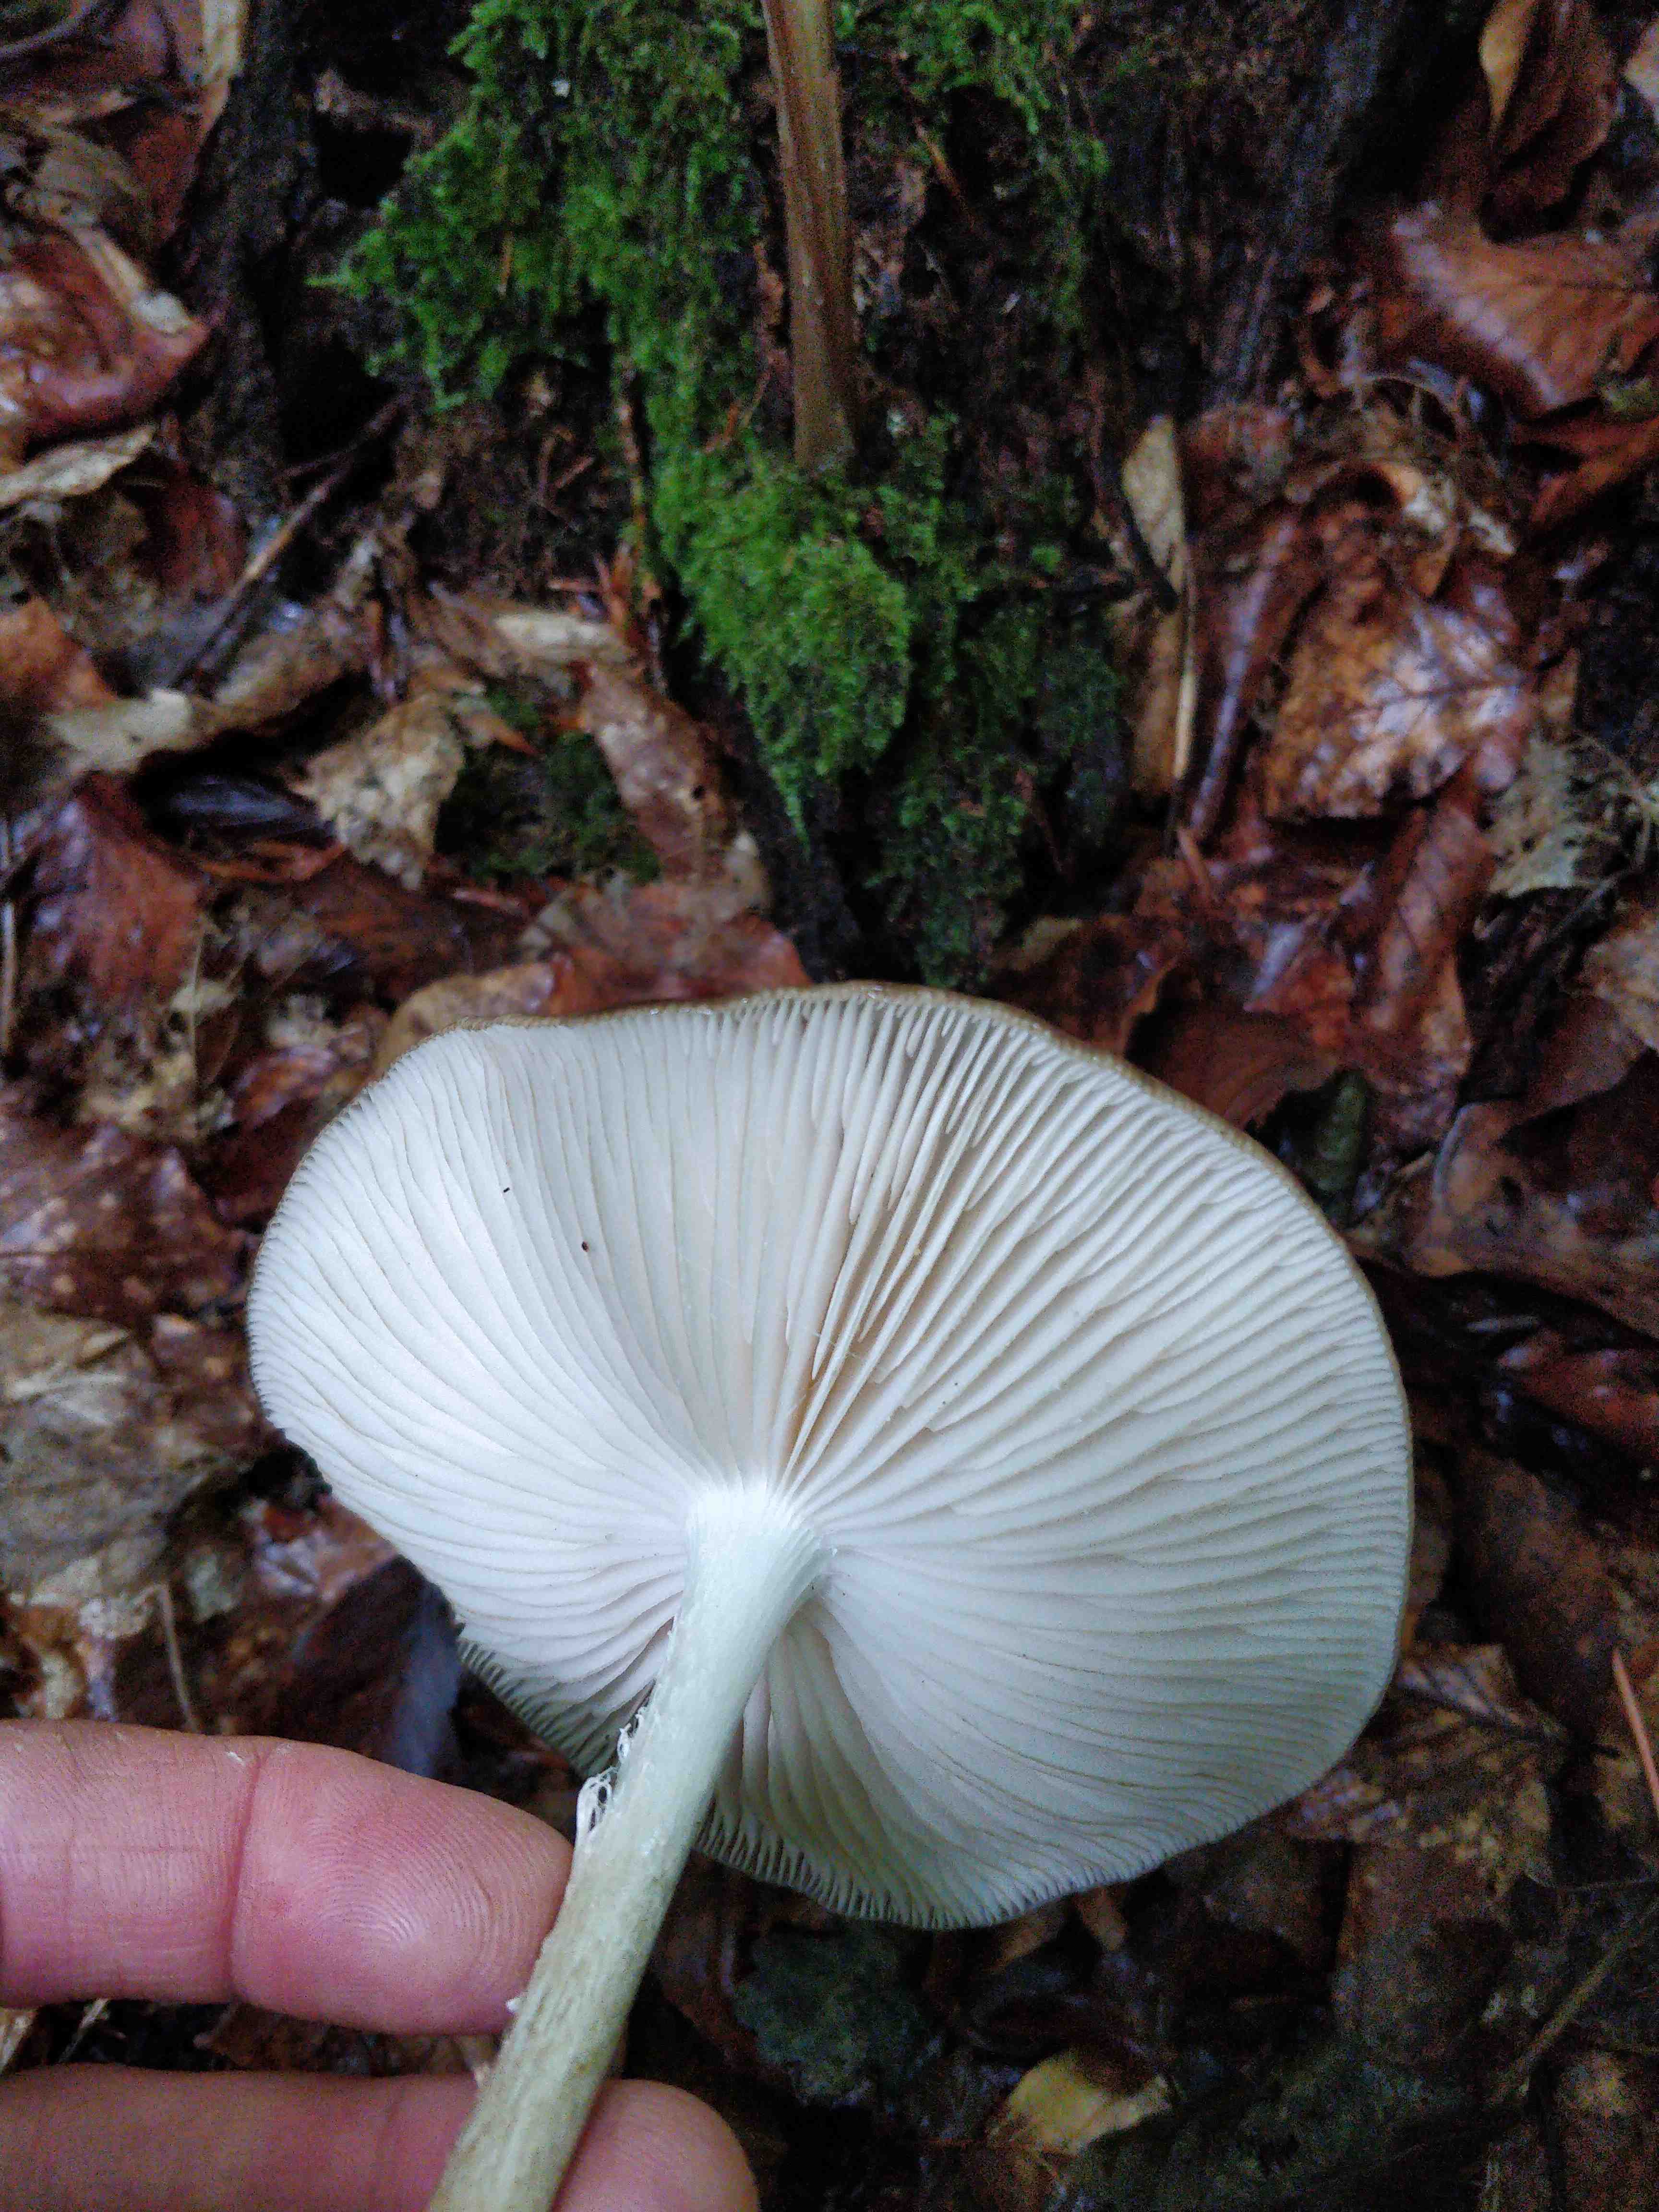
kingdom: Fungi
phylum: Basidiomycota
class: Agaricomycetes
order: Agaricales
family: Physalacriaceae
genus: Hymenopellis
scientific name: Hymenopellis radicata
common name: almindelig pælerodshat
